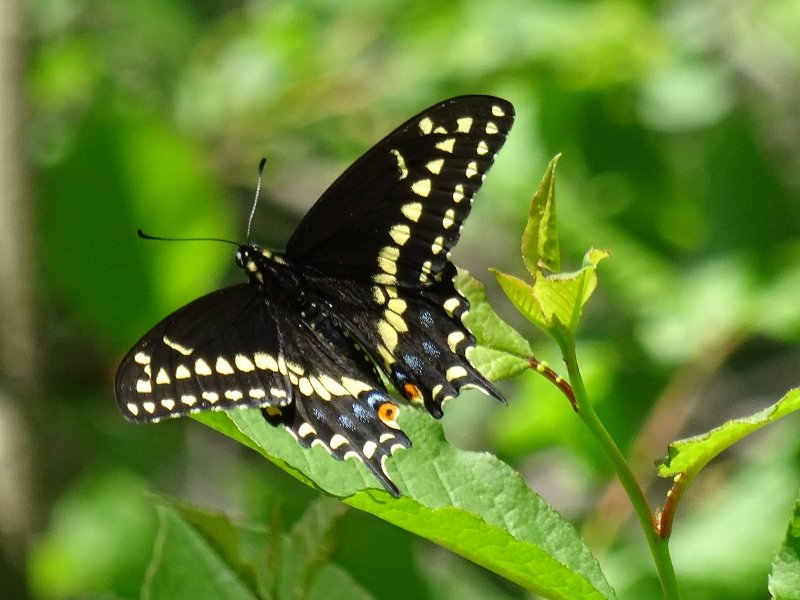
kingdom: Animalia
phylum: Arthropoda
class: Insecta
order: Lepidoptera
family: Papilionidae
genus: Papilio
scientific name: Papilio polyxenes
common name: Black Swallowtail
